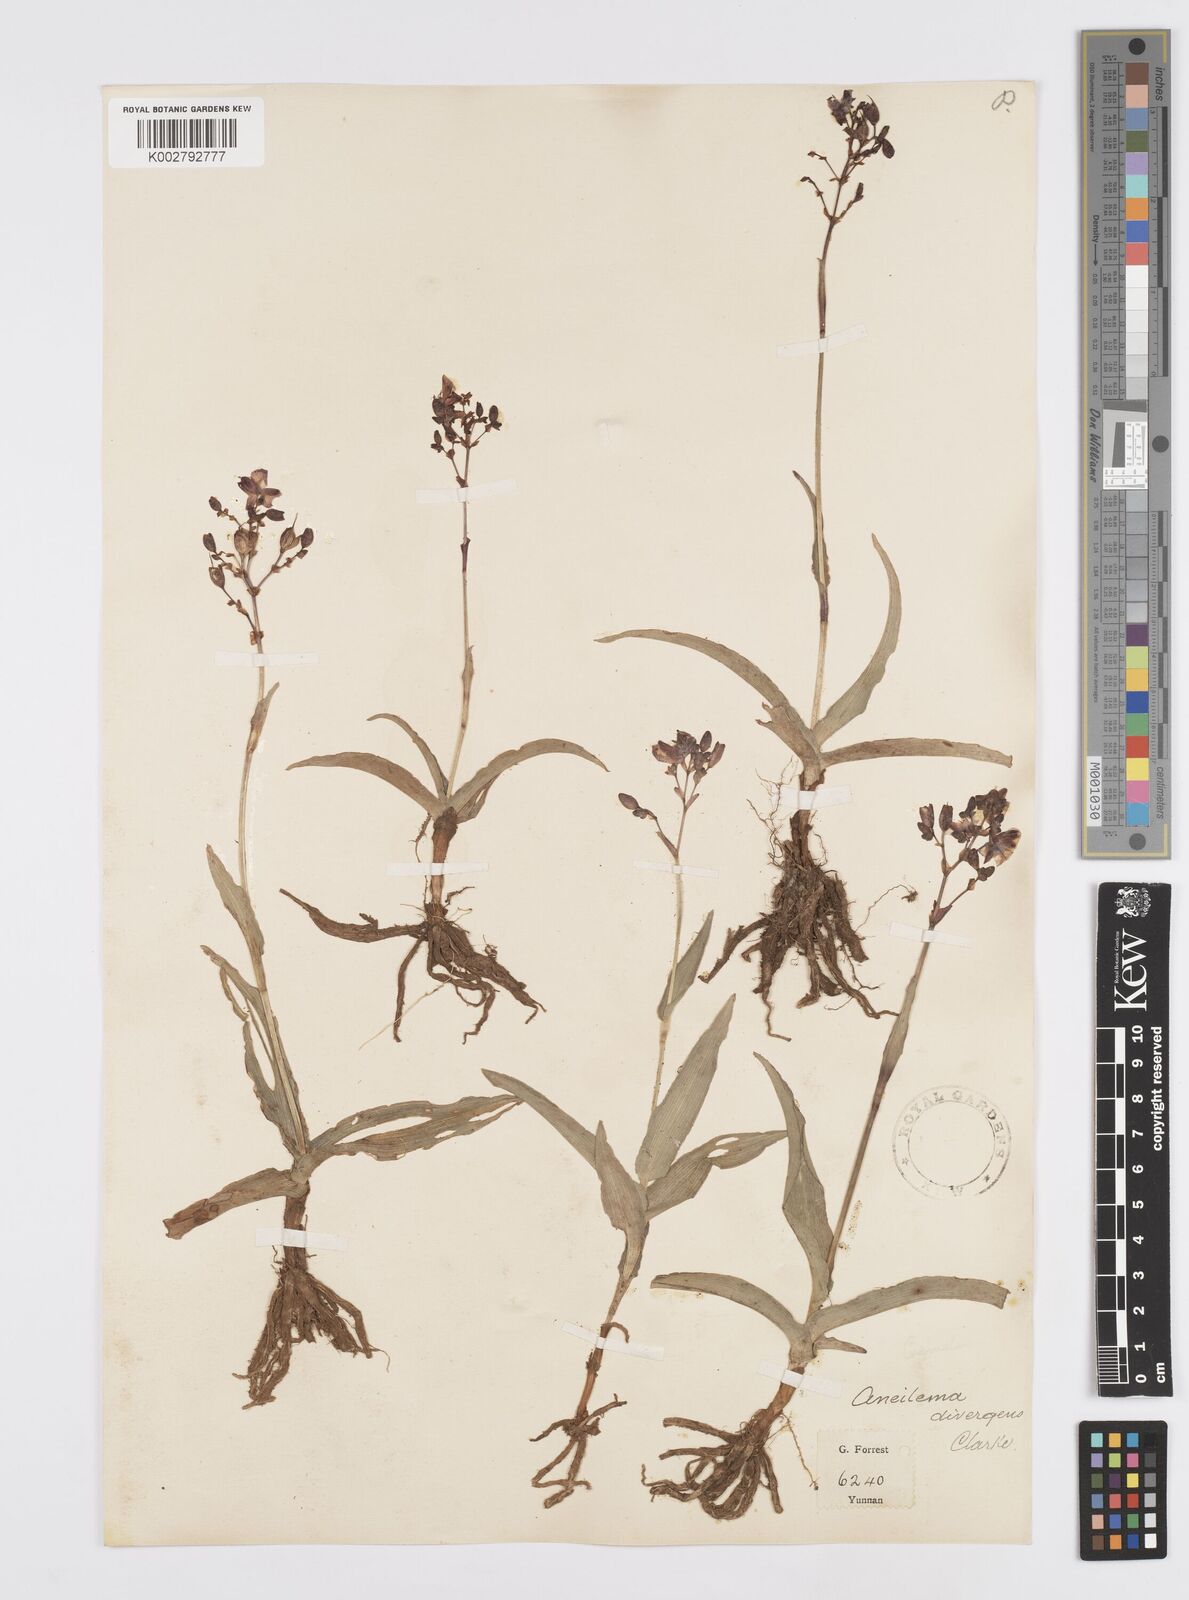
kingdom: Plantae
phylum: Tracheophyta
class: Liliopsida
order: Commelinales
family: Commelinaceae
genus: Murdannia
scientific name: Murdannia divergens
